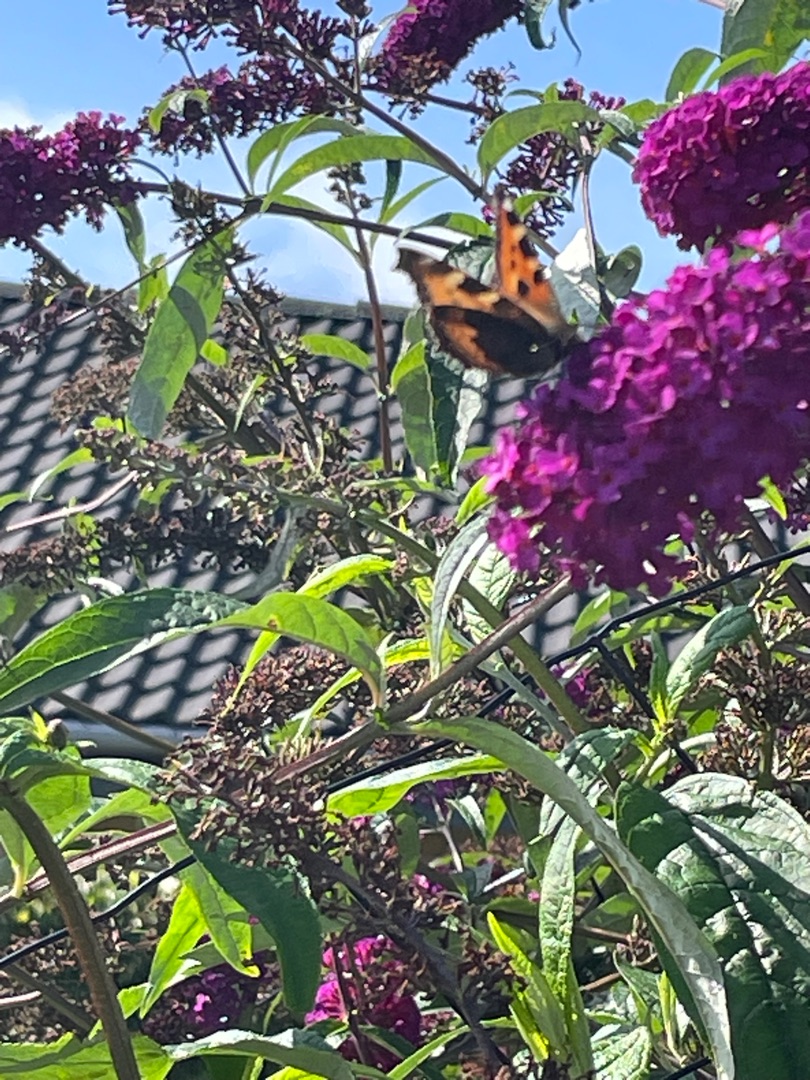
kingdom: Animalia
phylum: Arthropoda
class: Insecta
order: Lepidoptera
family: Nymphalidae
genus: Aglais
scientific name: Aglais urticae
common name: Nældens takvinge
